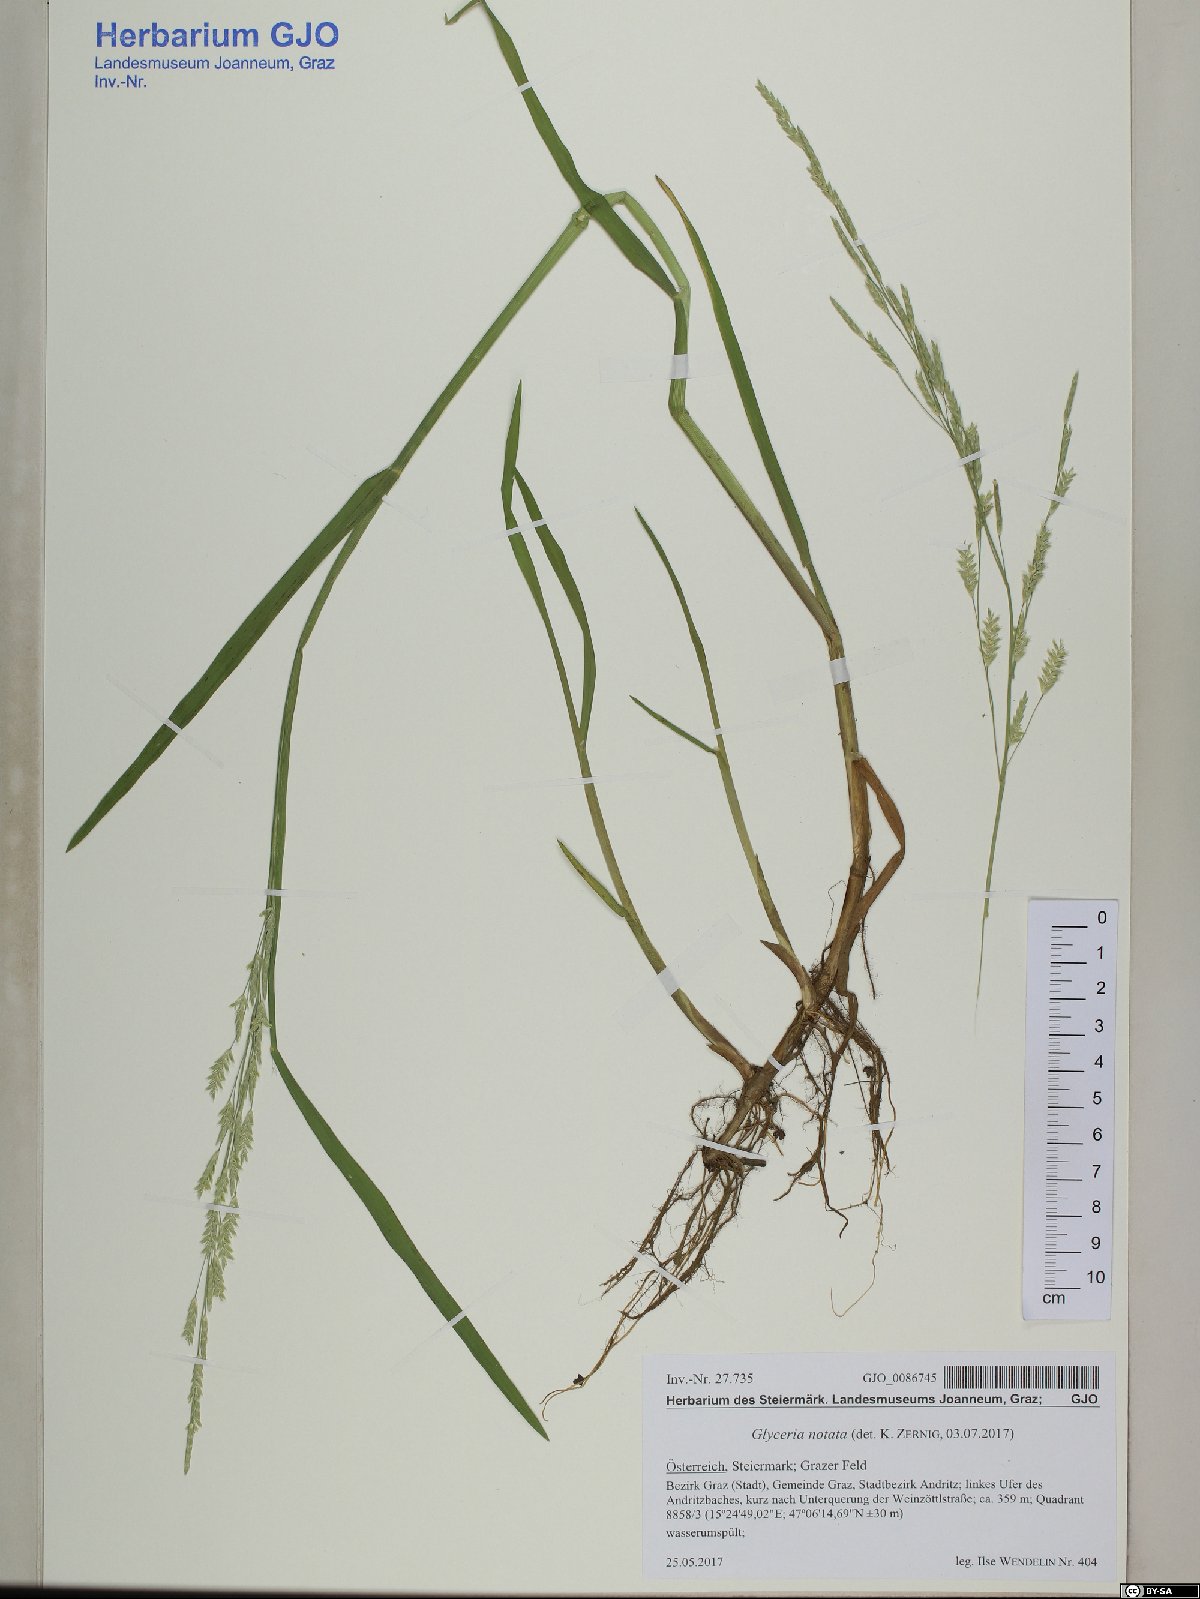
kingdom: Plantae
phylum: Tracheophyta
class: Liliopsida
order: Poales
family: Poaceae
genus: Glyceria
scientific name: Glyceria notata
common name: Plicate sweet-grass
